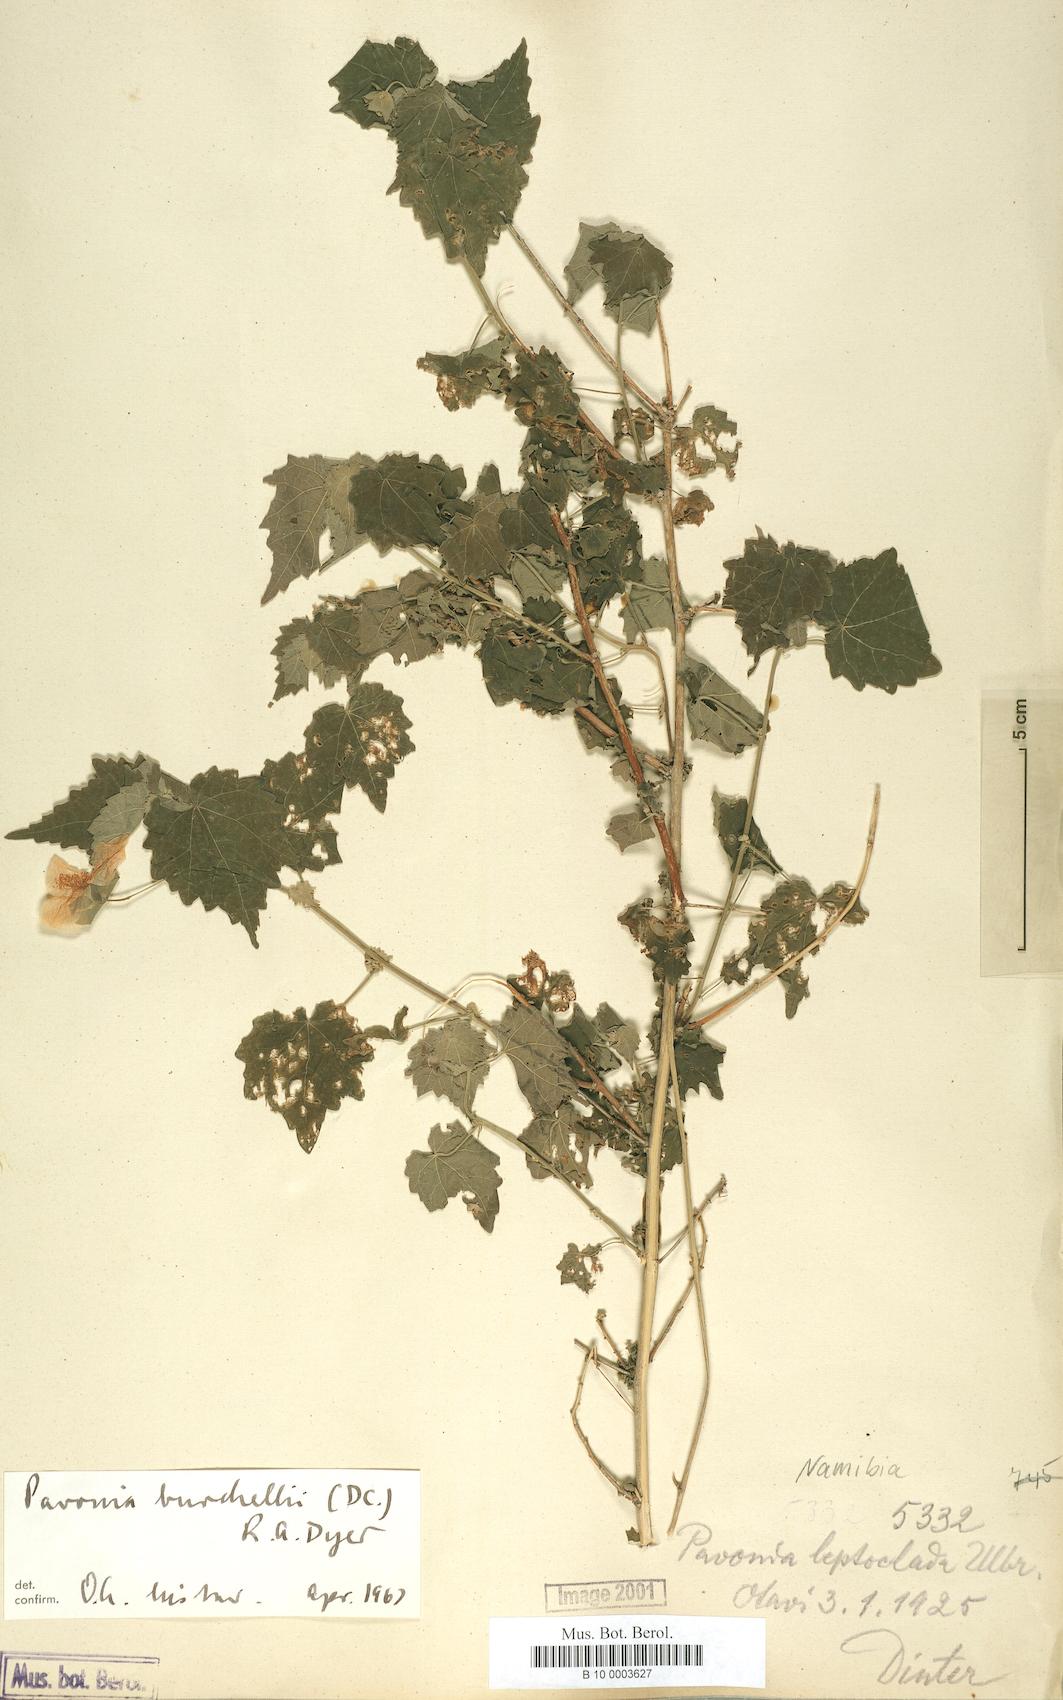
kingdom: Plantae
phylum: Tracheophyta
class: Magnoliopsida
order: Malvales
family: Malvaceae
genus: Pavonia
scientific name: Pavonia burchellii
